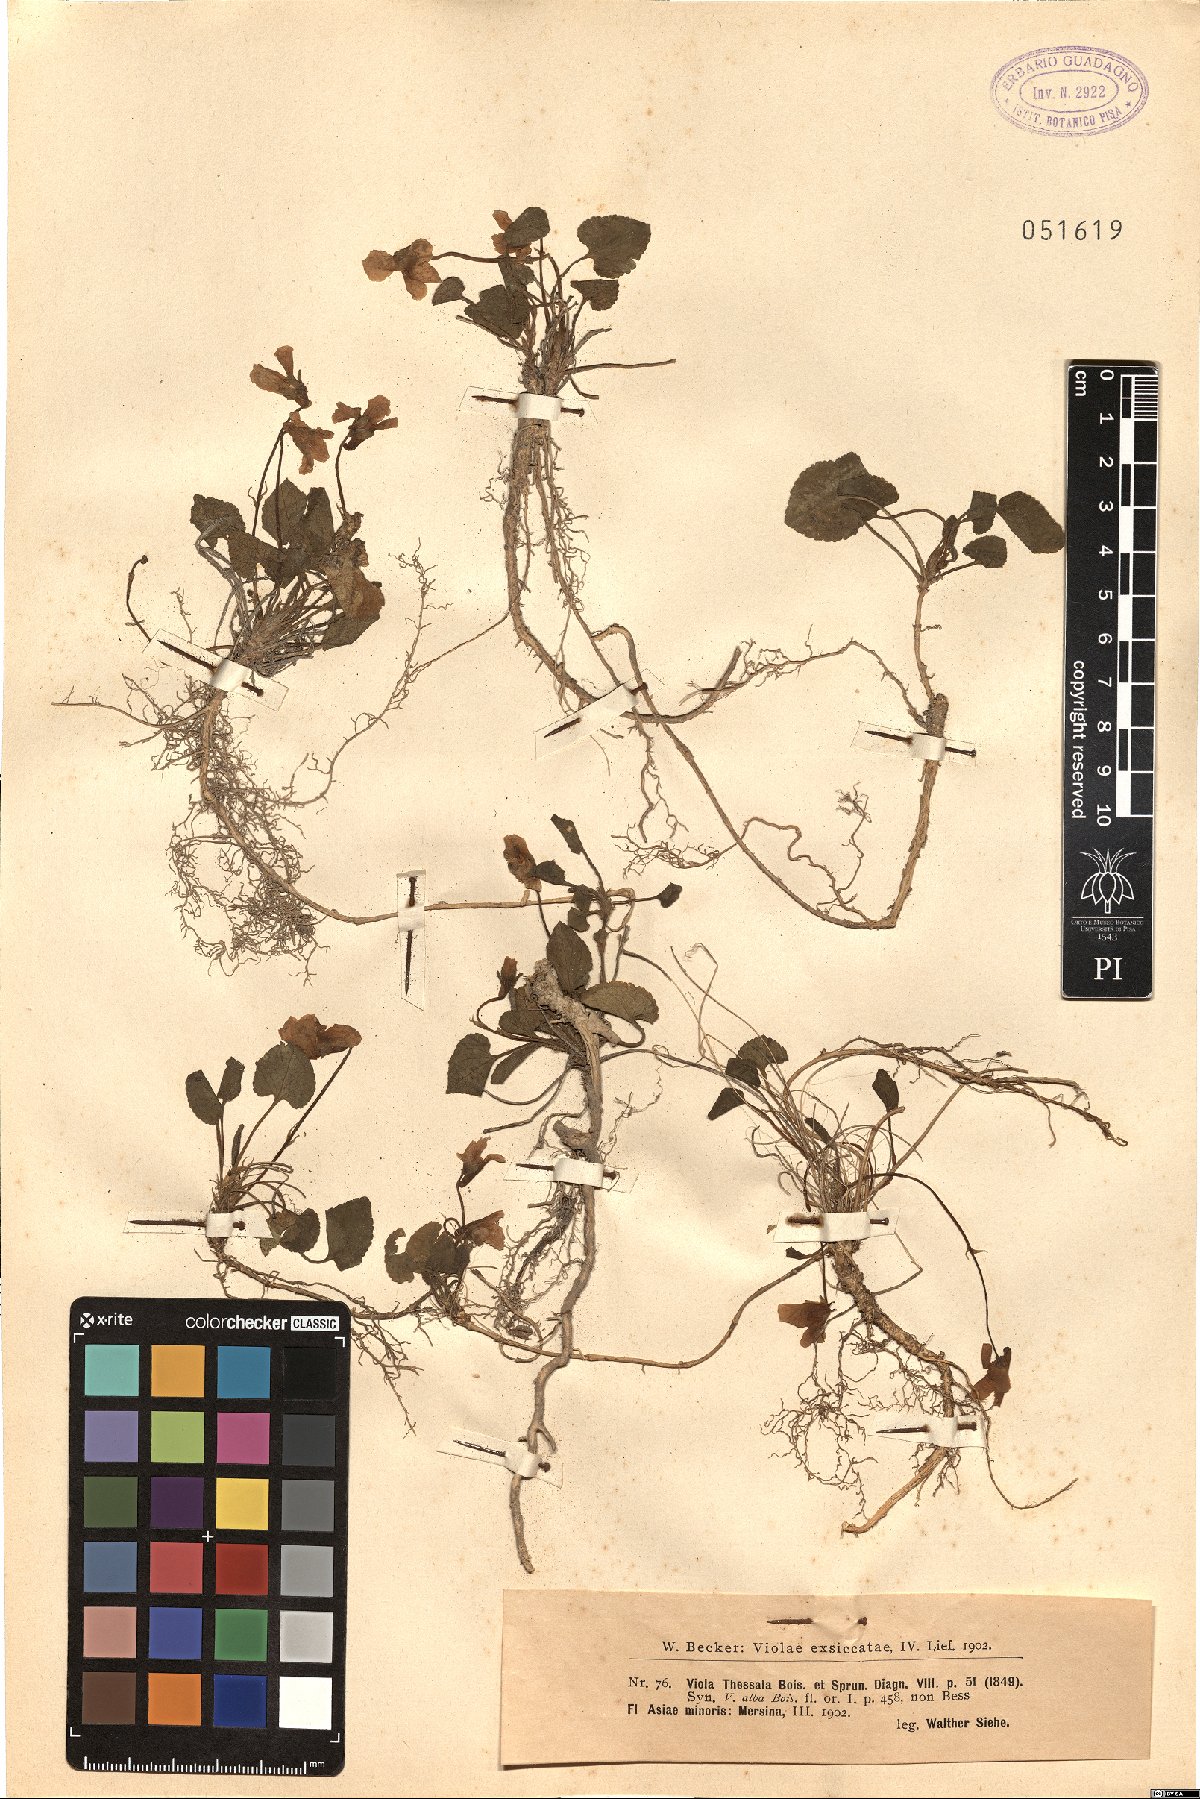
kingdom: Plantae
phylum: Tracheophyta
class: Magnoliopsida
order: Malpighiales
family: Violaceae
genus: Viola
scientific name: Viola alba
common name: White violet
